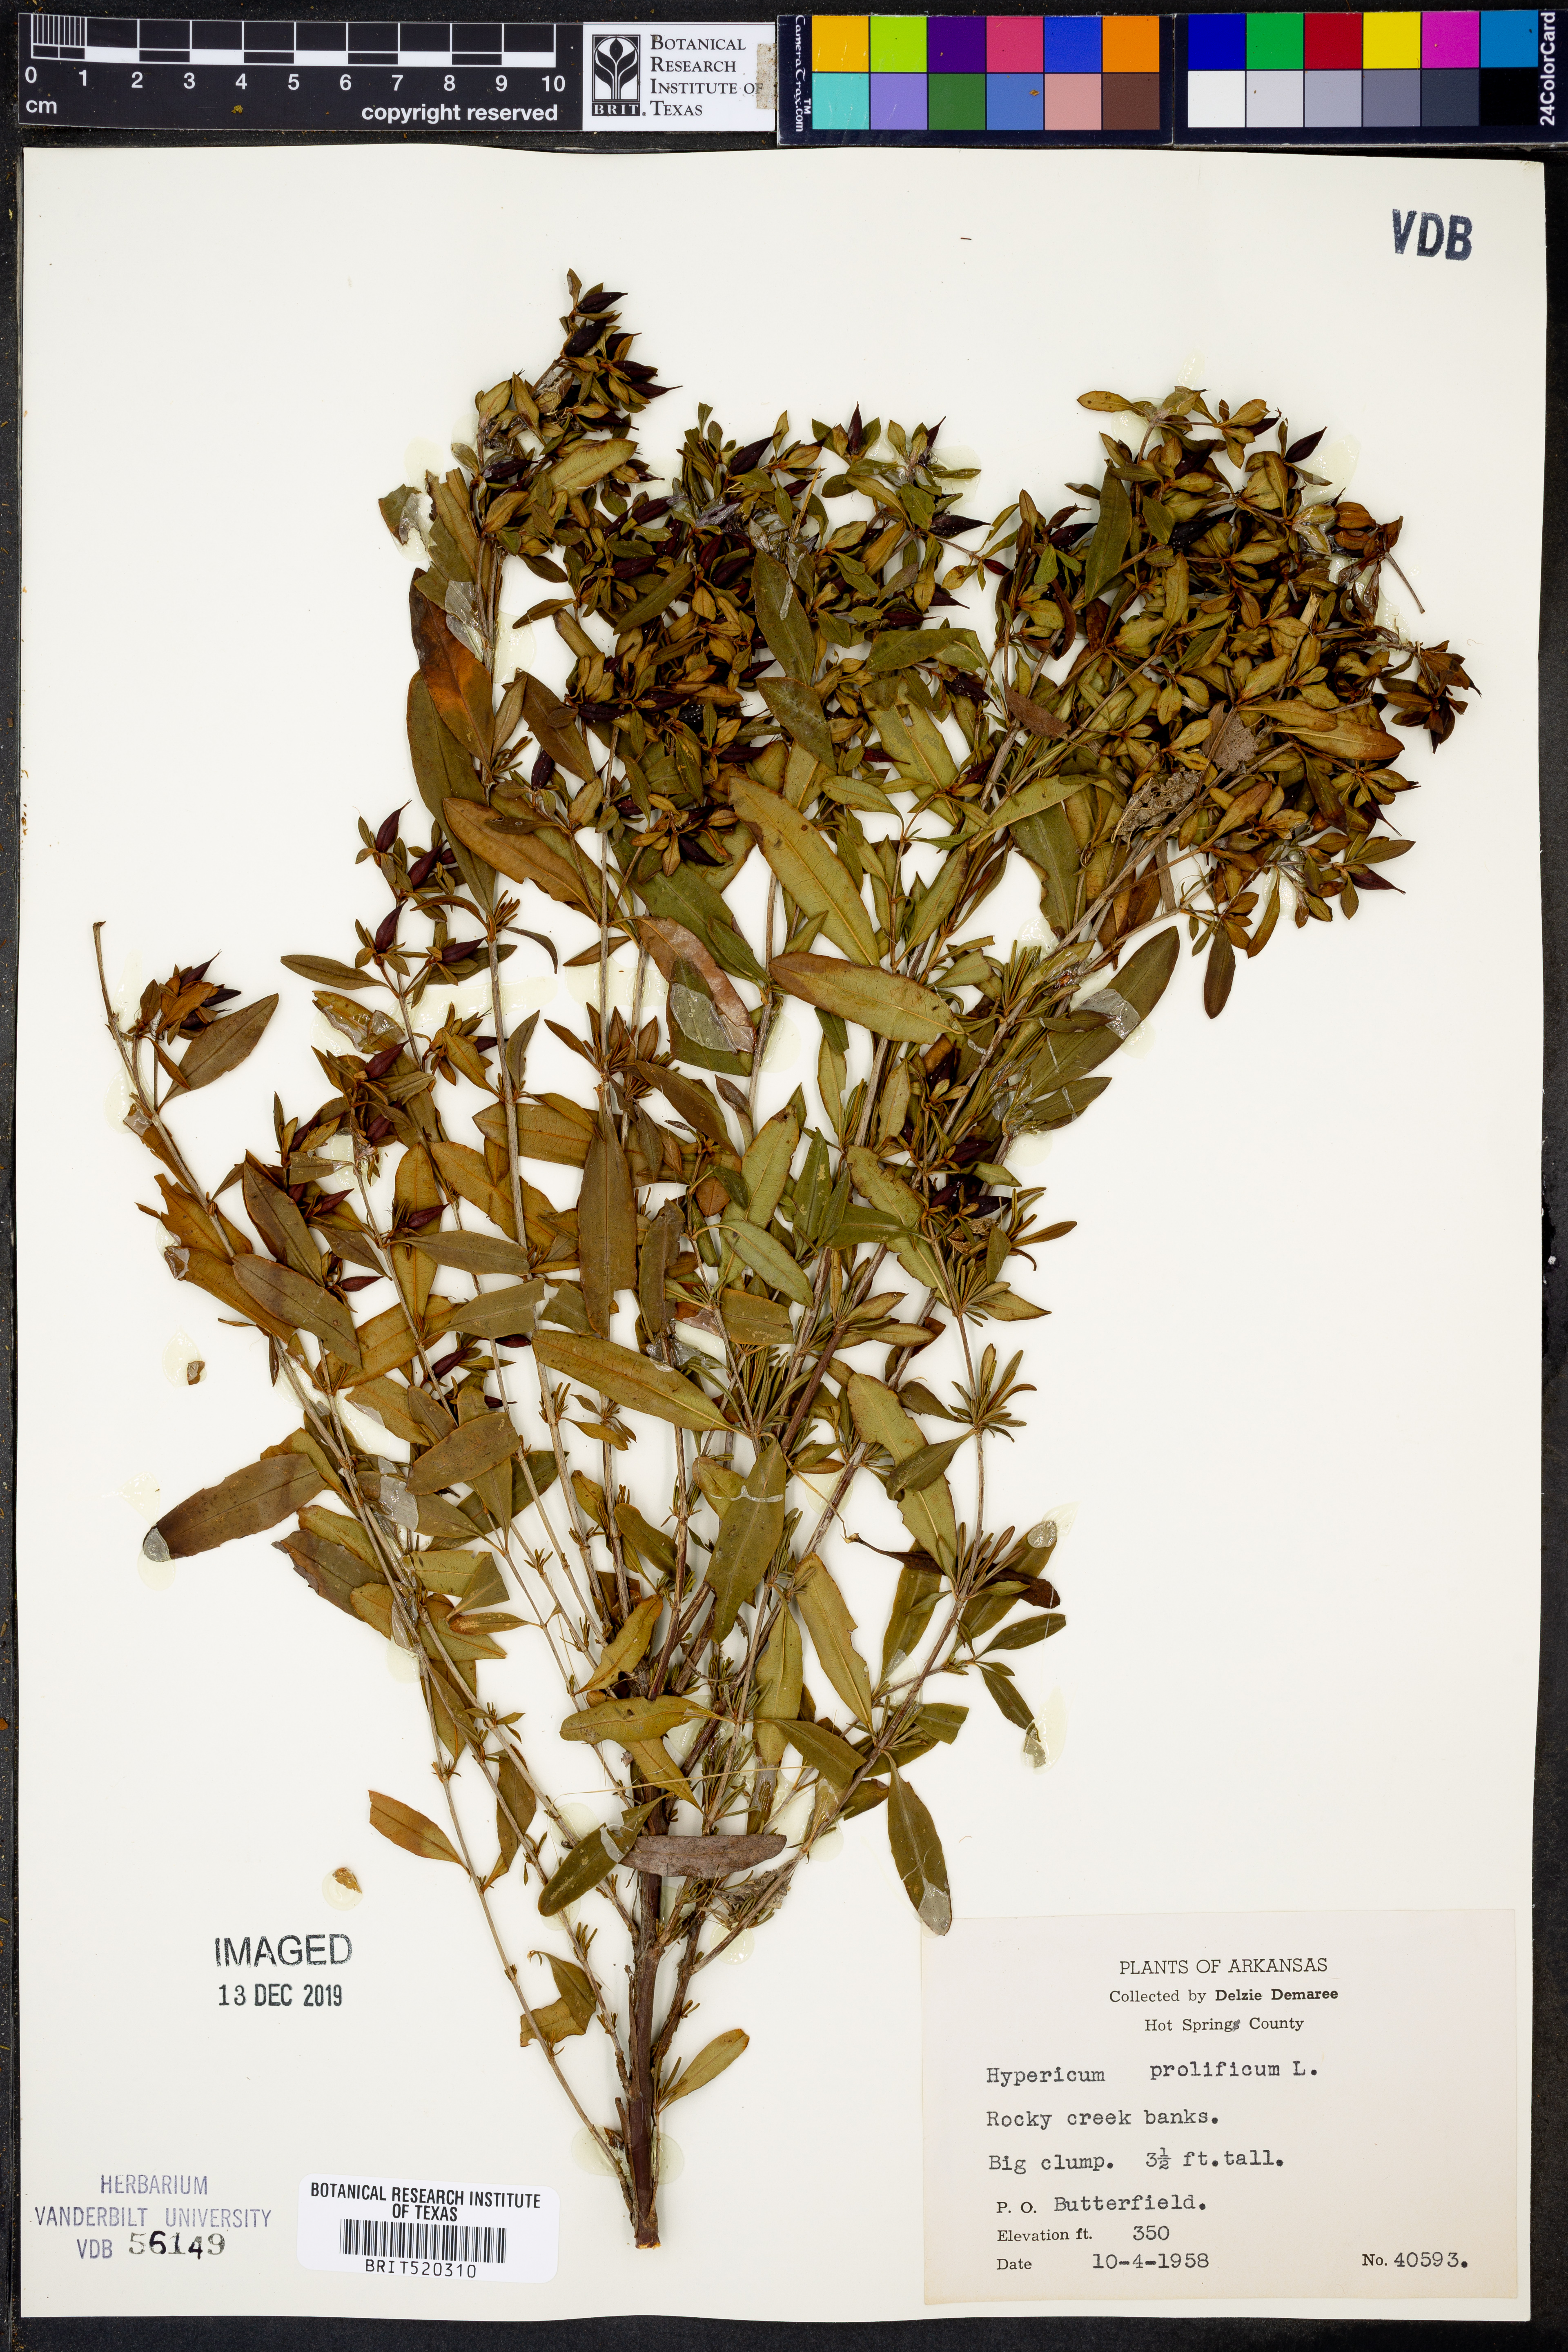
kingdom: Plantae
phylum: Tracheophyta
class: Magnoliopsida
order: Malpighiales
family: Hypericaceae
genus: Hypericum
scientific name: Hypericum prolificum
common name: Shrubby st. john's-wort
